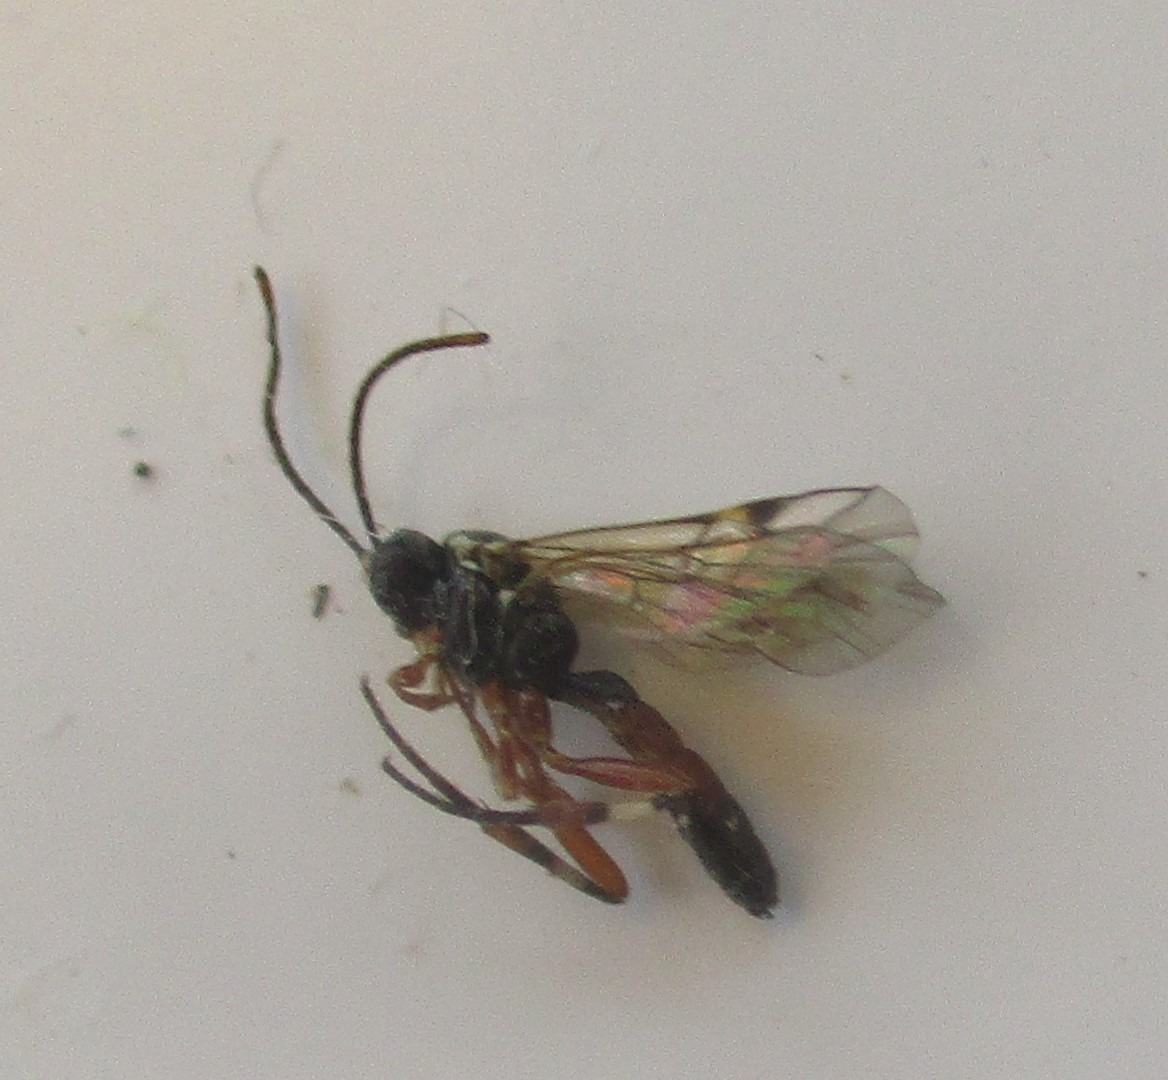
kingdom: Animalia
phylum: Arthropoda
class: Insecta
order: Hymenoptera
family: Ichneumonidae
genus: Diplazon
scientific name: Diplazon laetatorius
